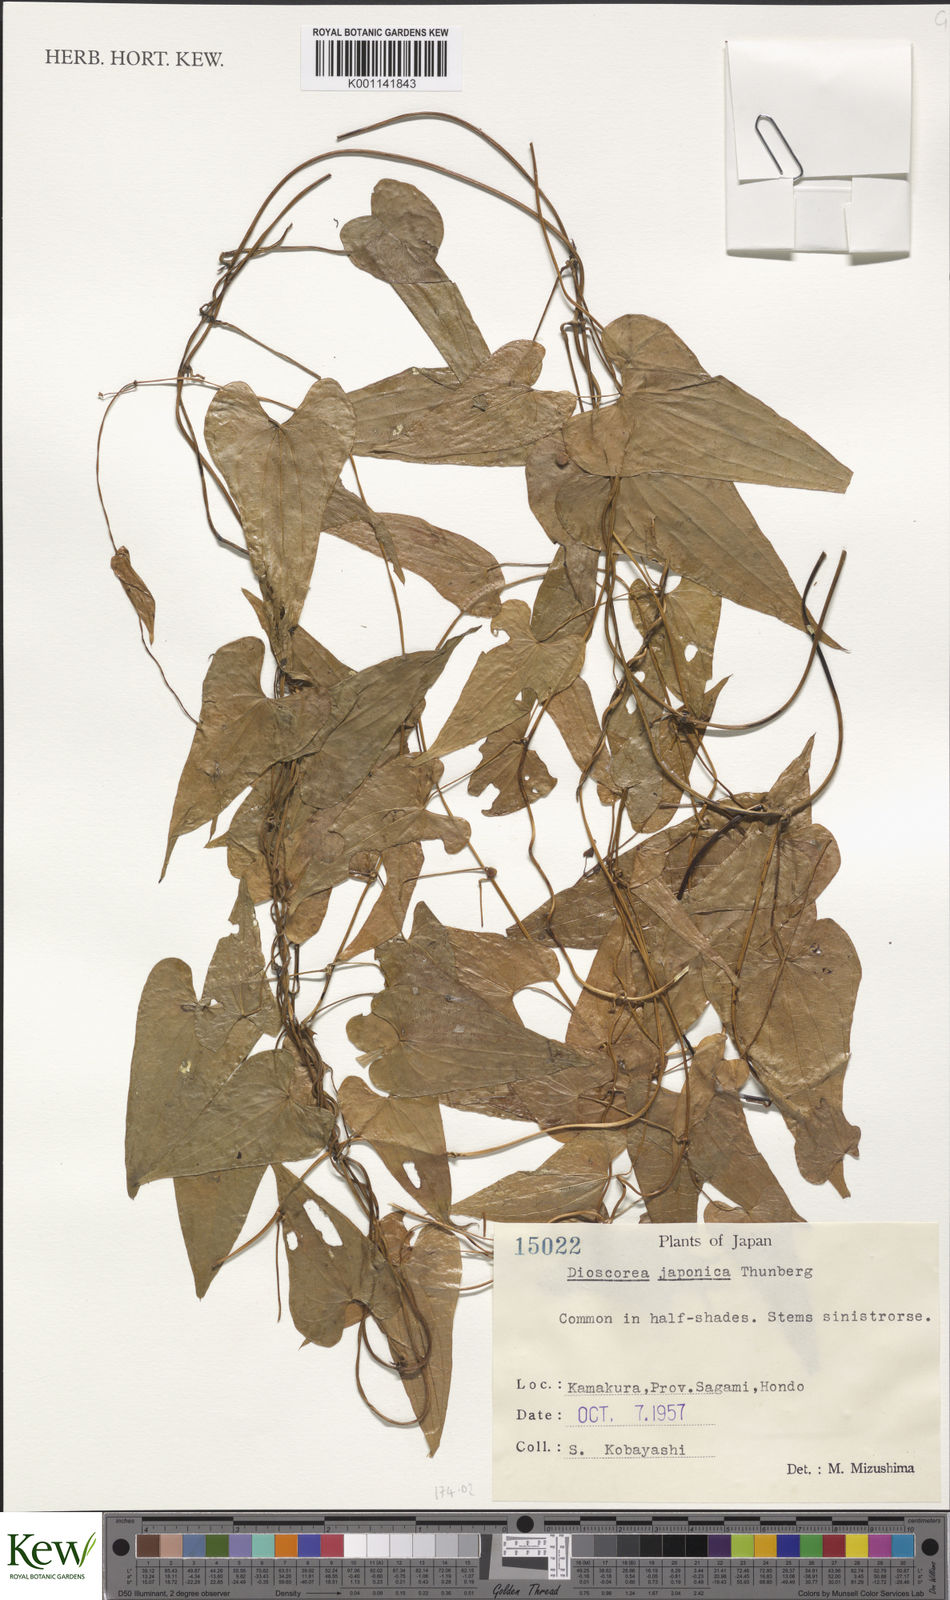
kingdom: Plantae
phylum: Tracheophyta
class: Liliopsida
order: Dioscoreales
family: Dioscoreaceae
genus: Dioscorea
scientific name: Dioscorea japonica
